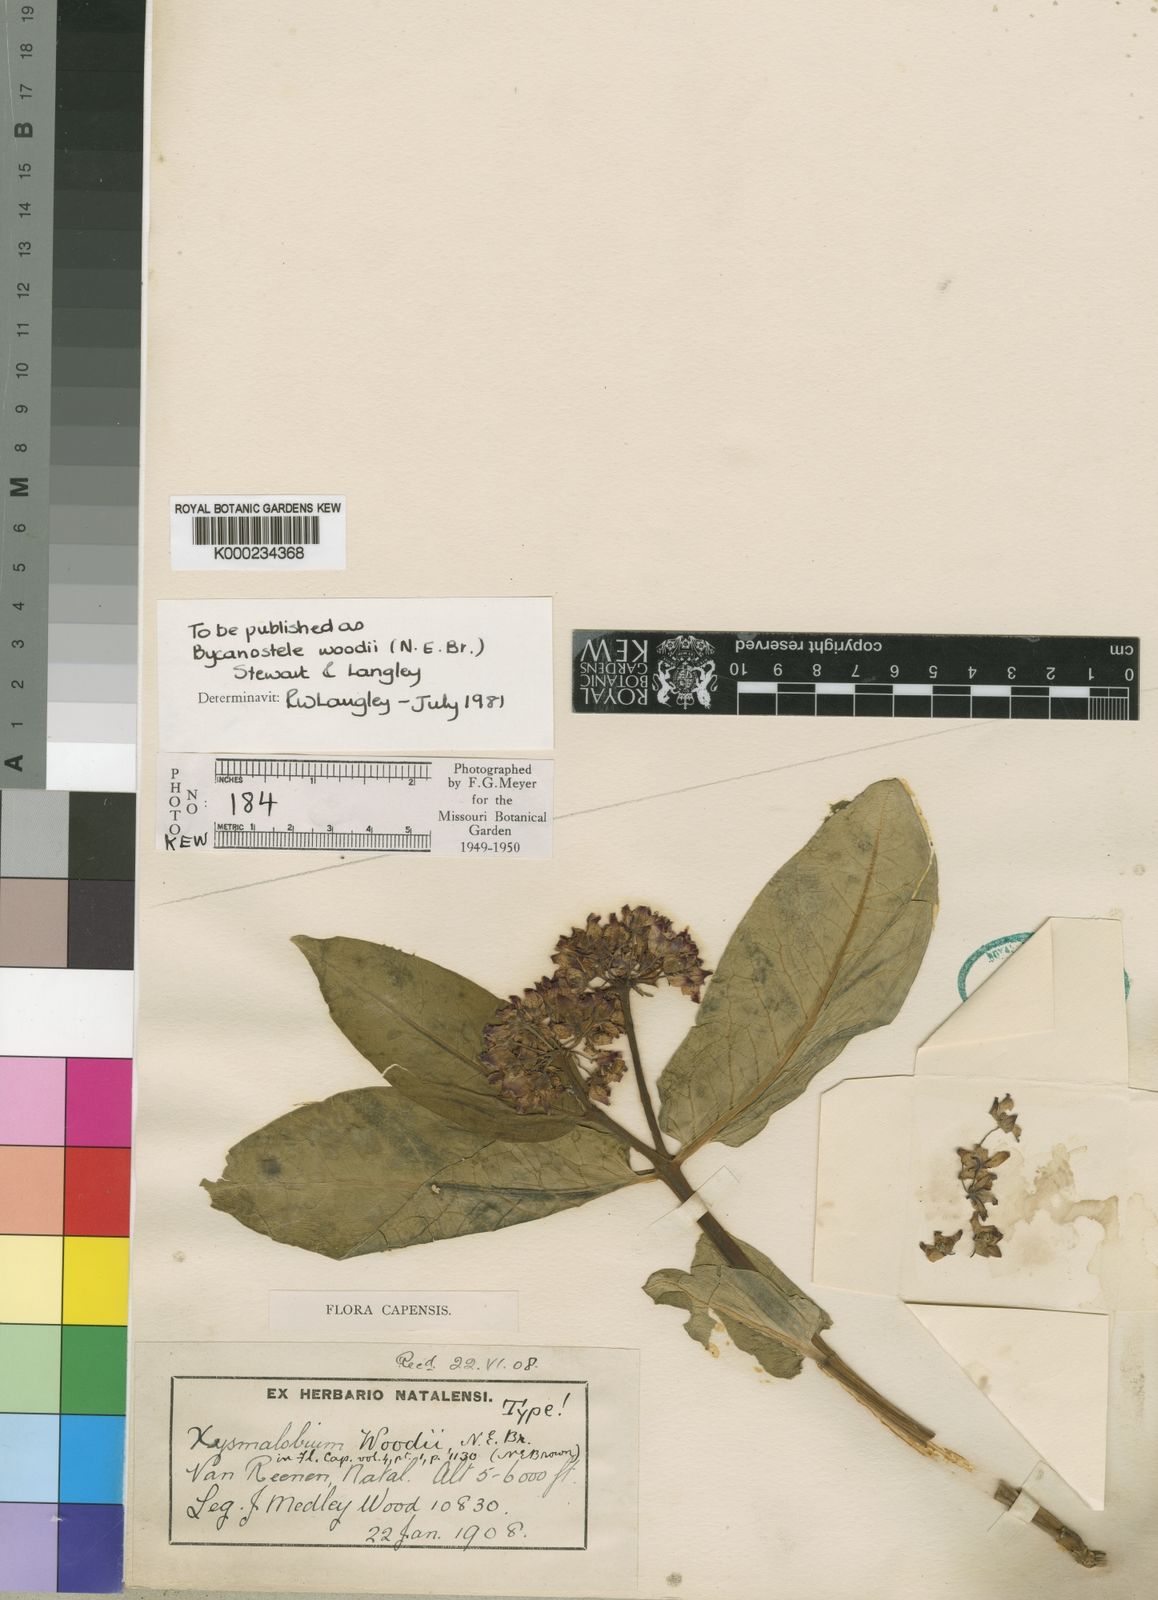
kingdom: Plantae
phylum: Tracheophyta
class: Magnoliopsida
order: Gentianales
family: Apocynaceae
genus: Xysmalobium
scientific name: Xysmalobium woodii
